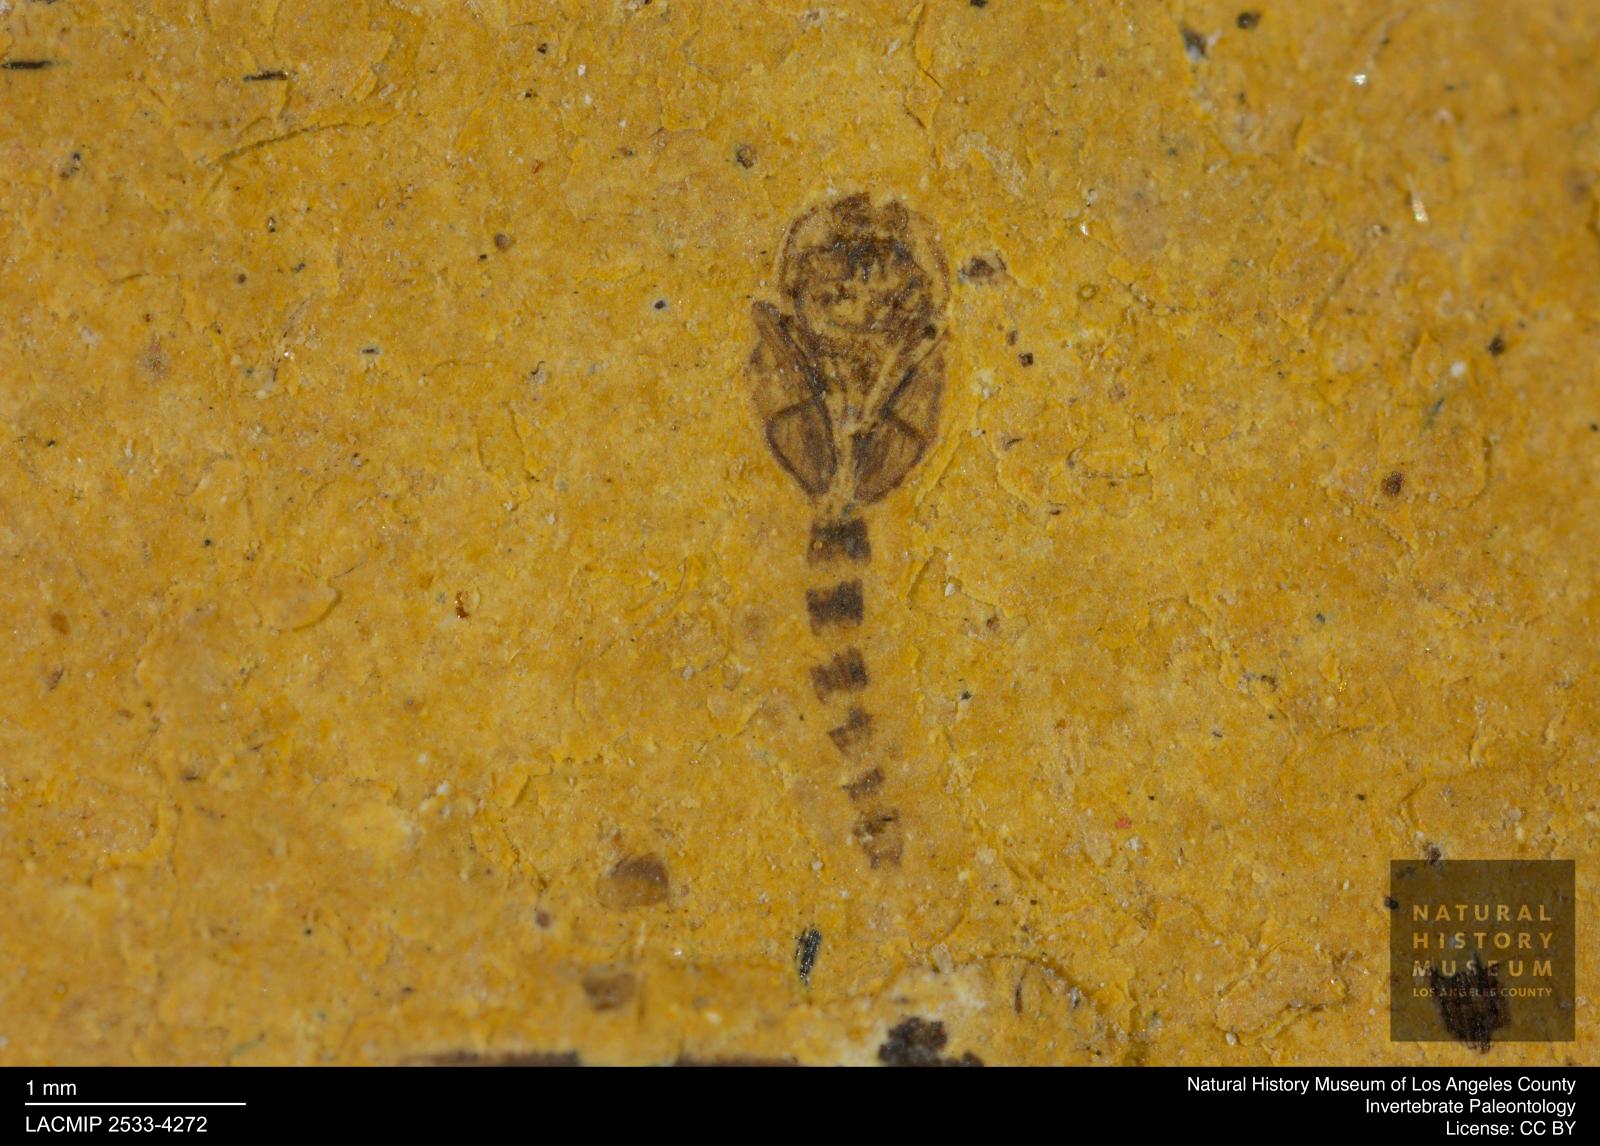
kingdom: Animalia
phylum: Arthropoda
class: Insecta
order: Diptera
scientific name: Diptera
